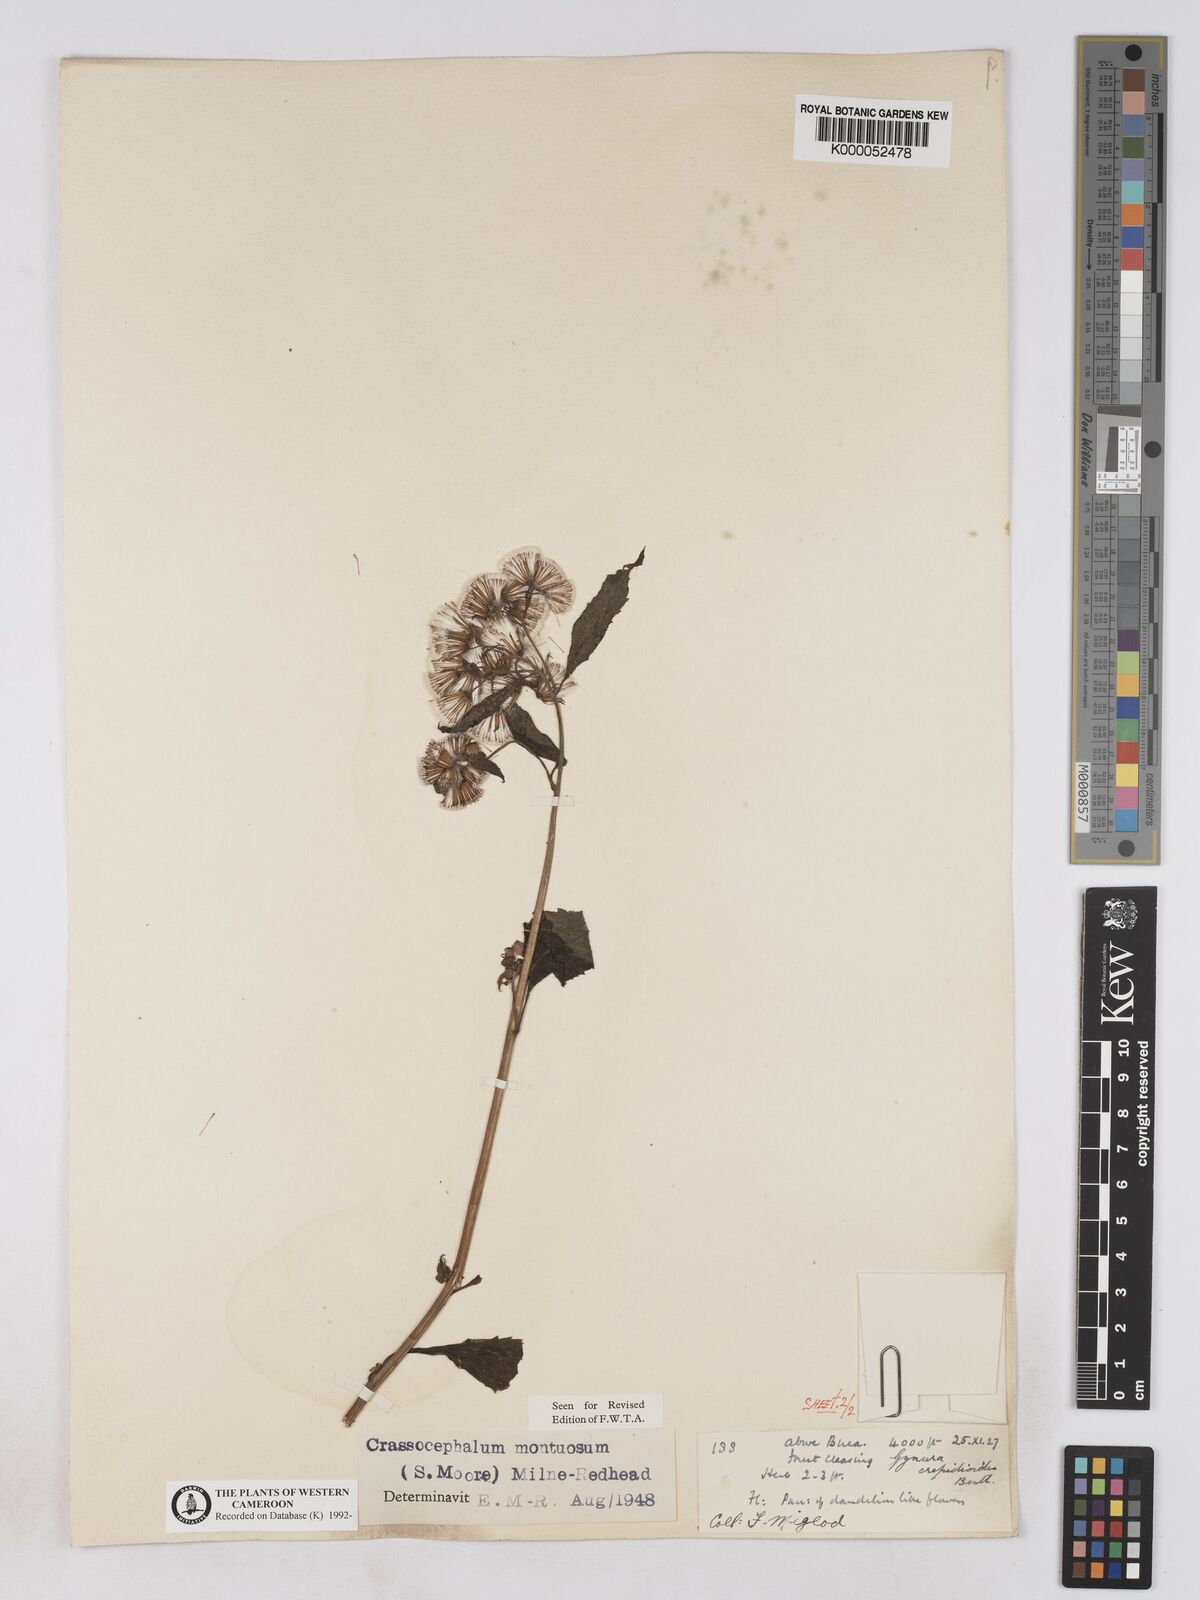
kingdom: Plantae
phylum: Tracheophyta
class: Magnoliopsida
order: Asterales
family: Asteraceae
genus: Crassocephalum
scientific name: Crassocephalum montuosum
